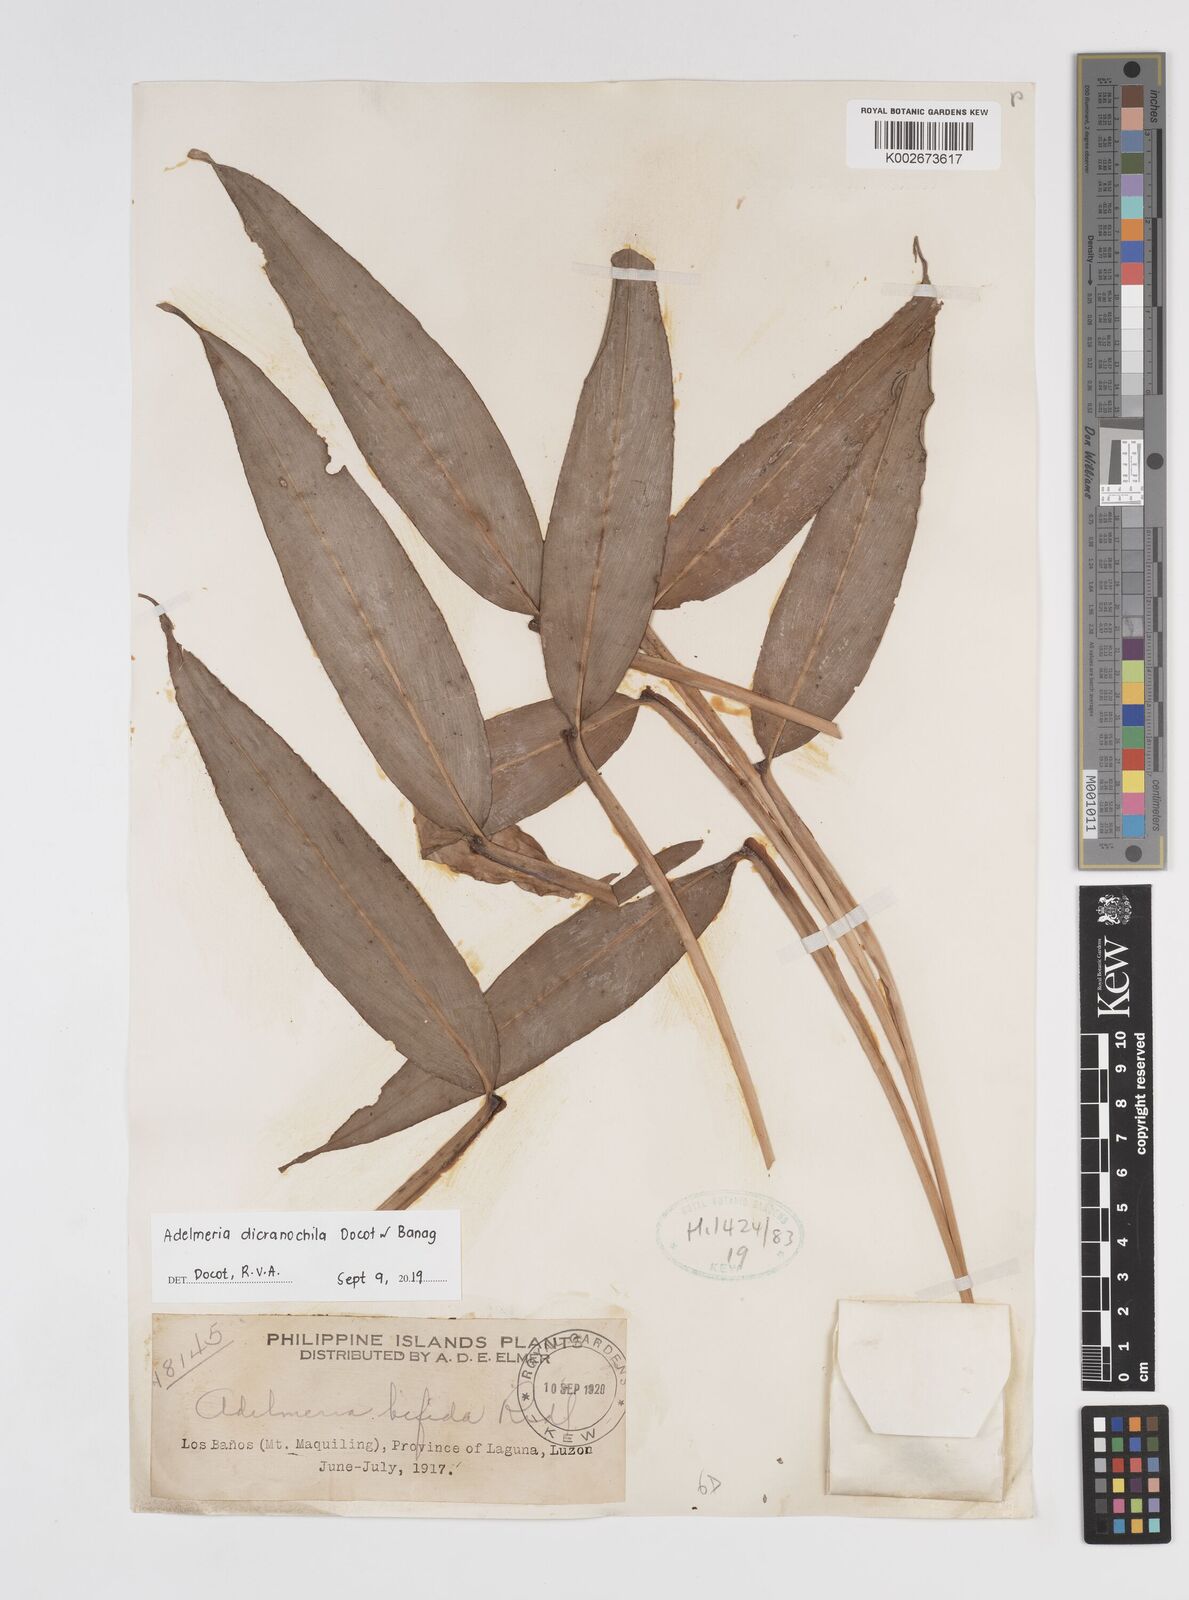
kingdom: Plantae
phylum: Tracheophyta
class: Liliopsida
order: Zingiberales
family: Zingiberaceae
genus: Adelmeria
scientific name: Adelmeria dicranochila
